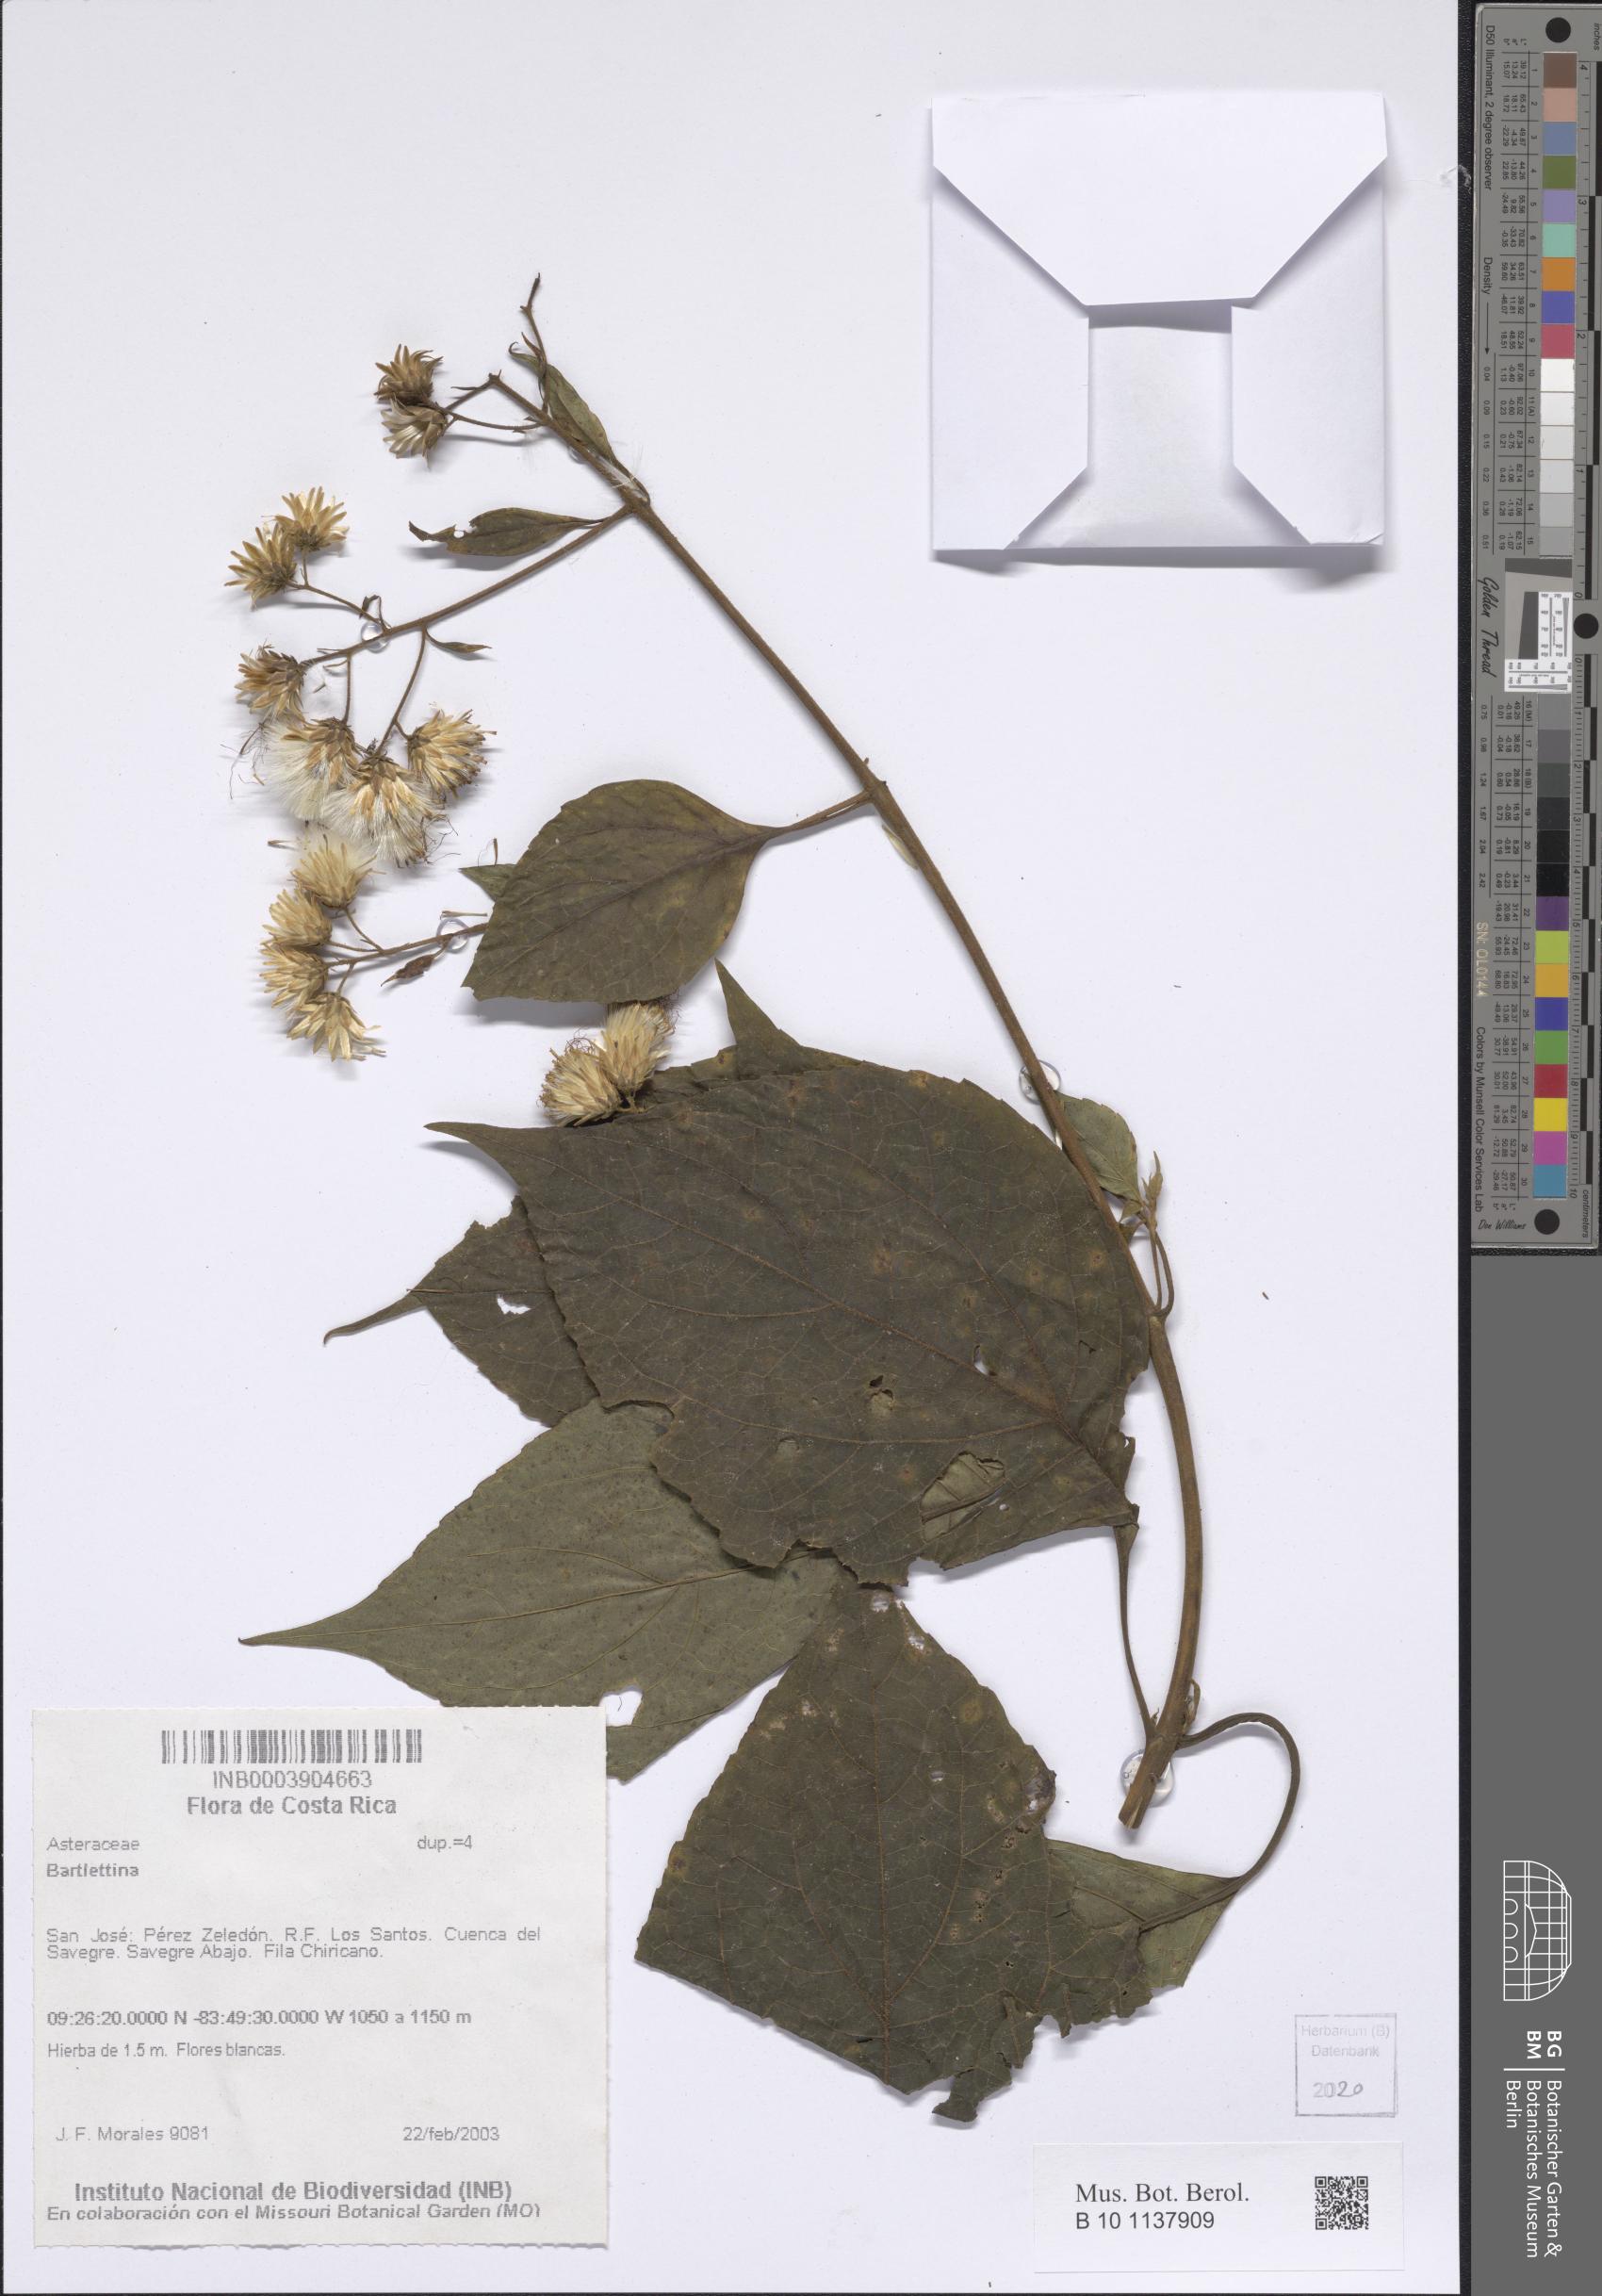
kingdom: Plantae
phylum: Tracheophyta
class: Magnoliopsida
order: Asterales
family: Asteraceae
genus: Bartlettina
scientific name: Bartlettina
